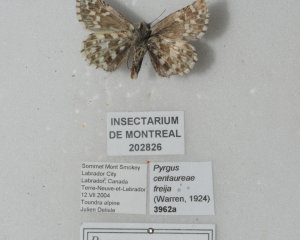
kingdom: Animalia
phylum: Arthropoda
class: Insecta
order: Lepidoptera
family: Hesperiidae
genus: Pyrgus
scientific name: Pyrgus centaureae
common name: Grizzled Skipper
